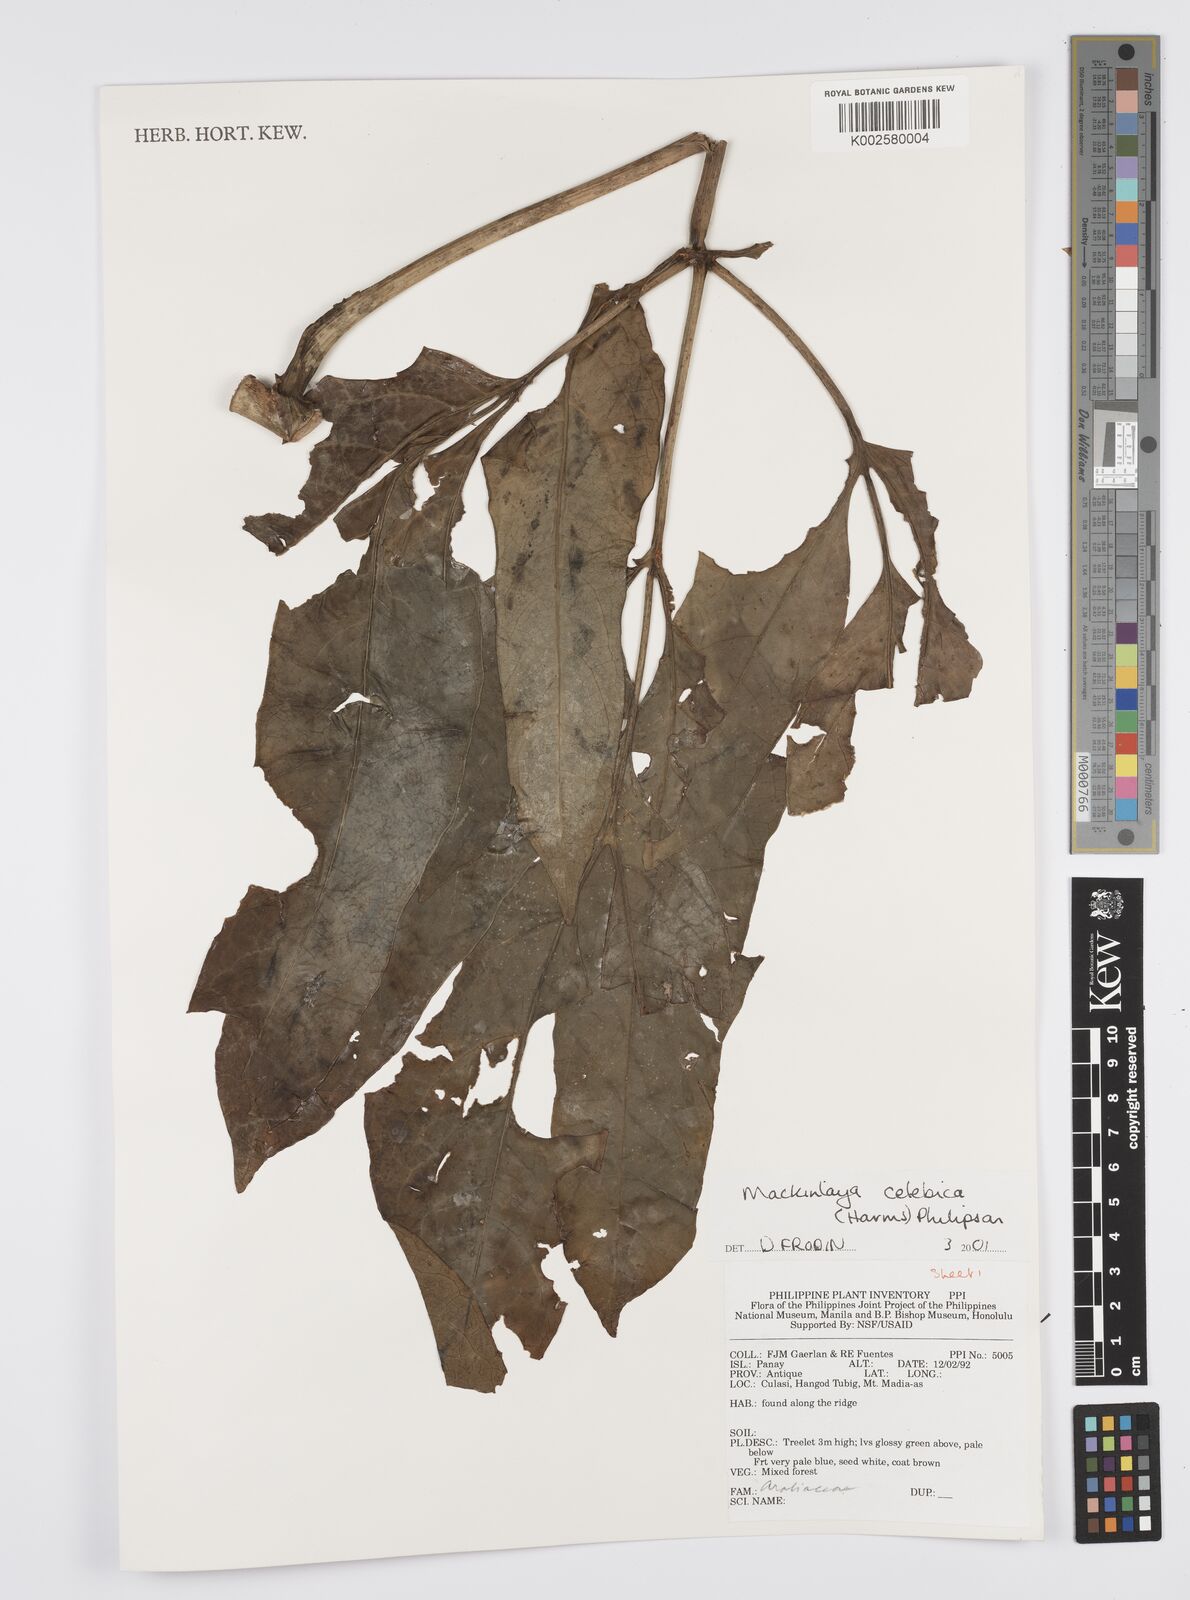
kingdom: Plantae
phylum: Tracheophyta
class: Magnoliopsida
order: Apiales
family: Apiaceae
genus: Mackinlaya
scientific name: Mackinlaya celebica
